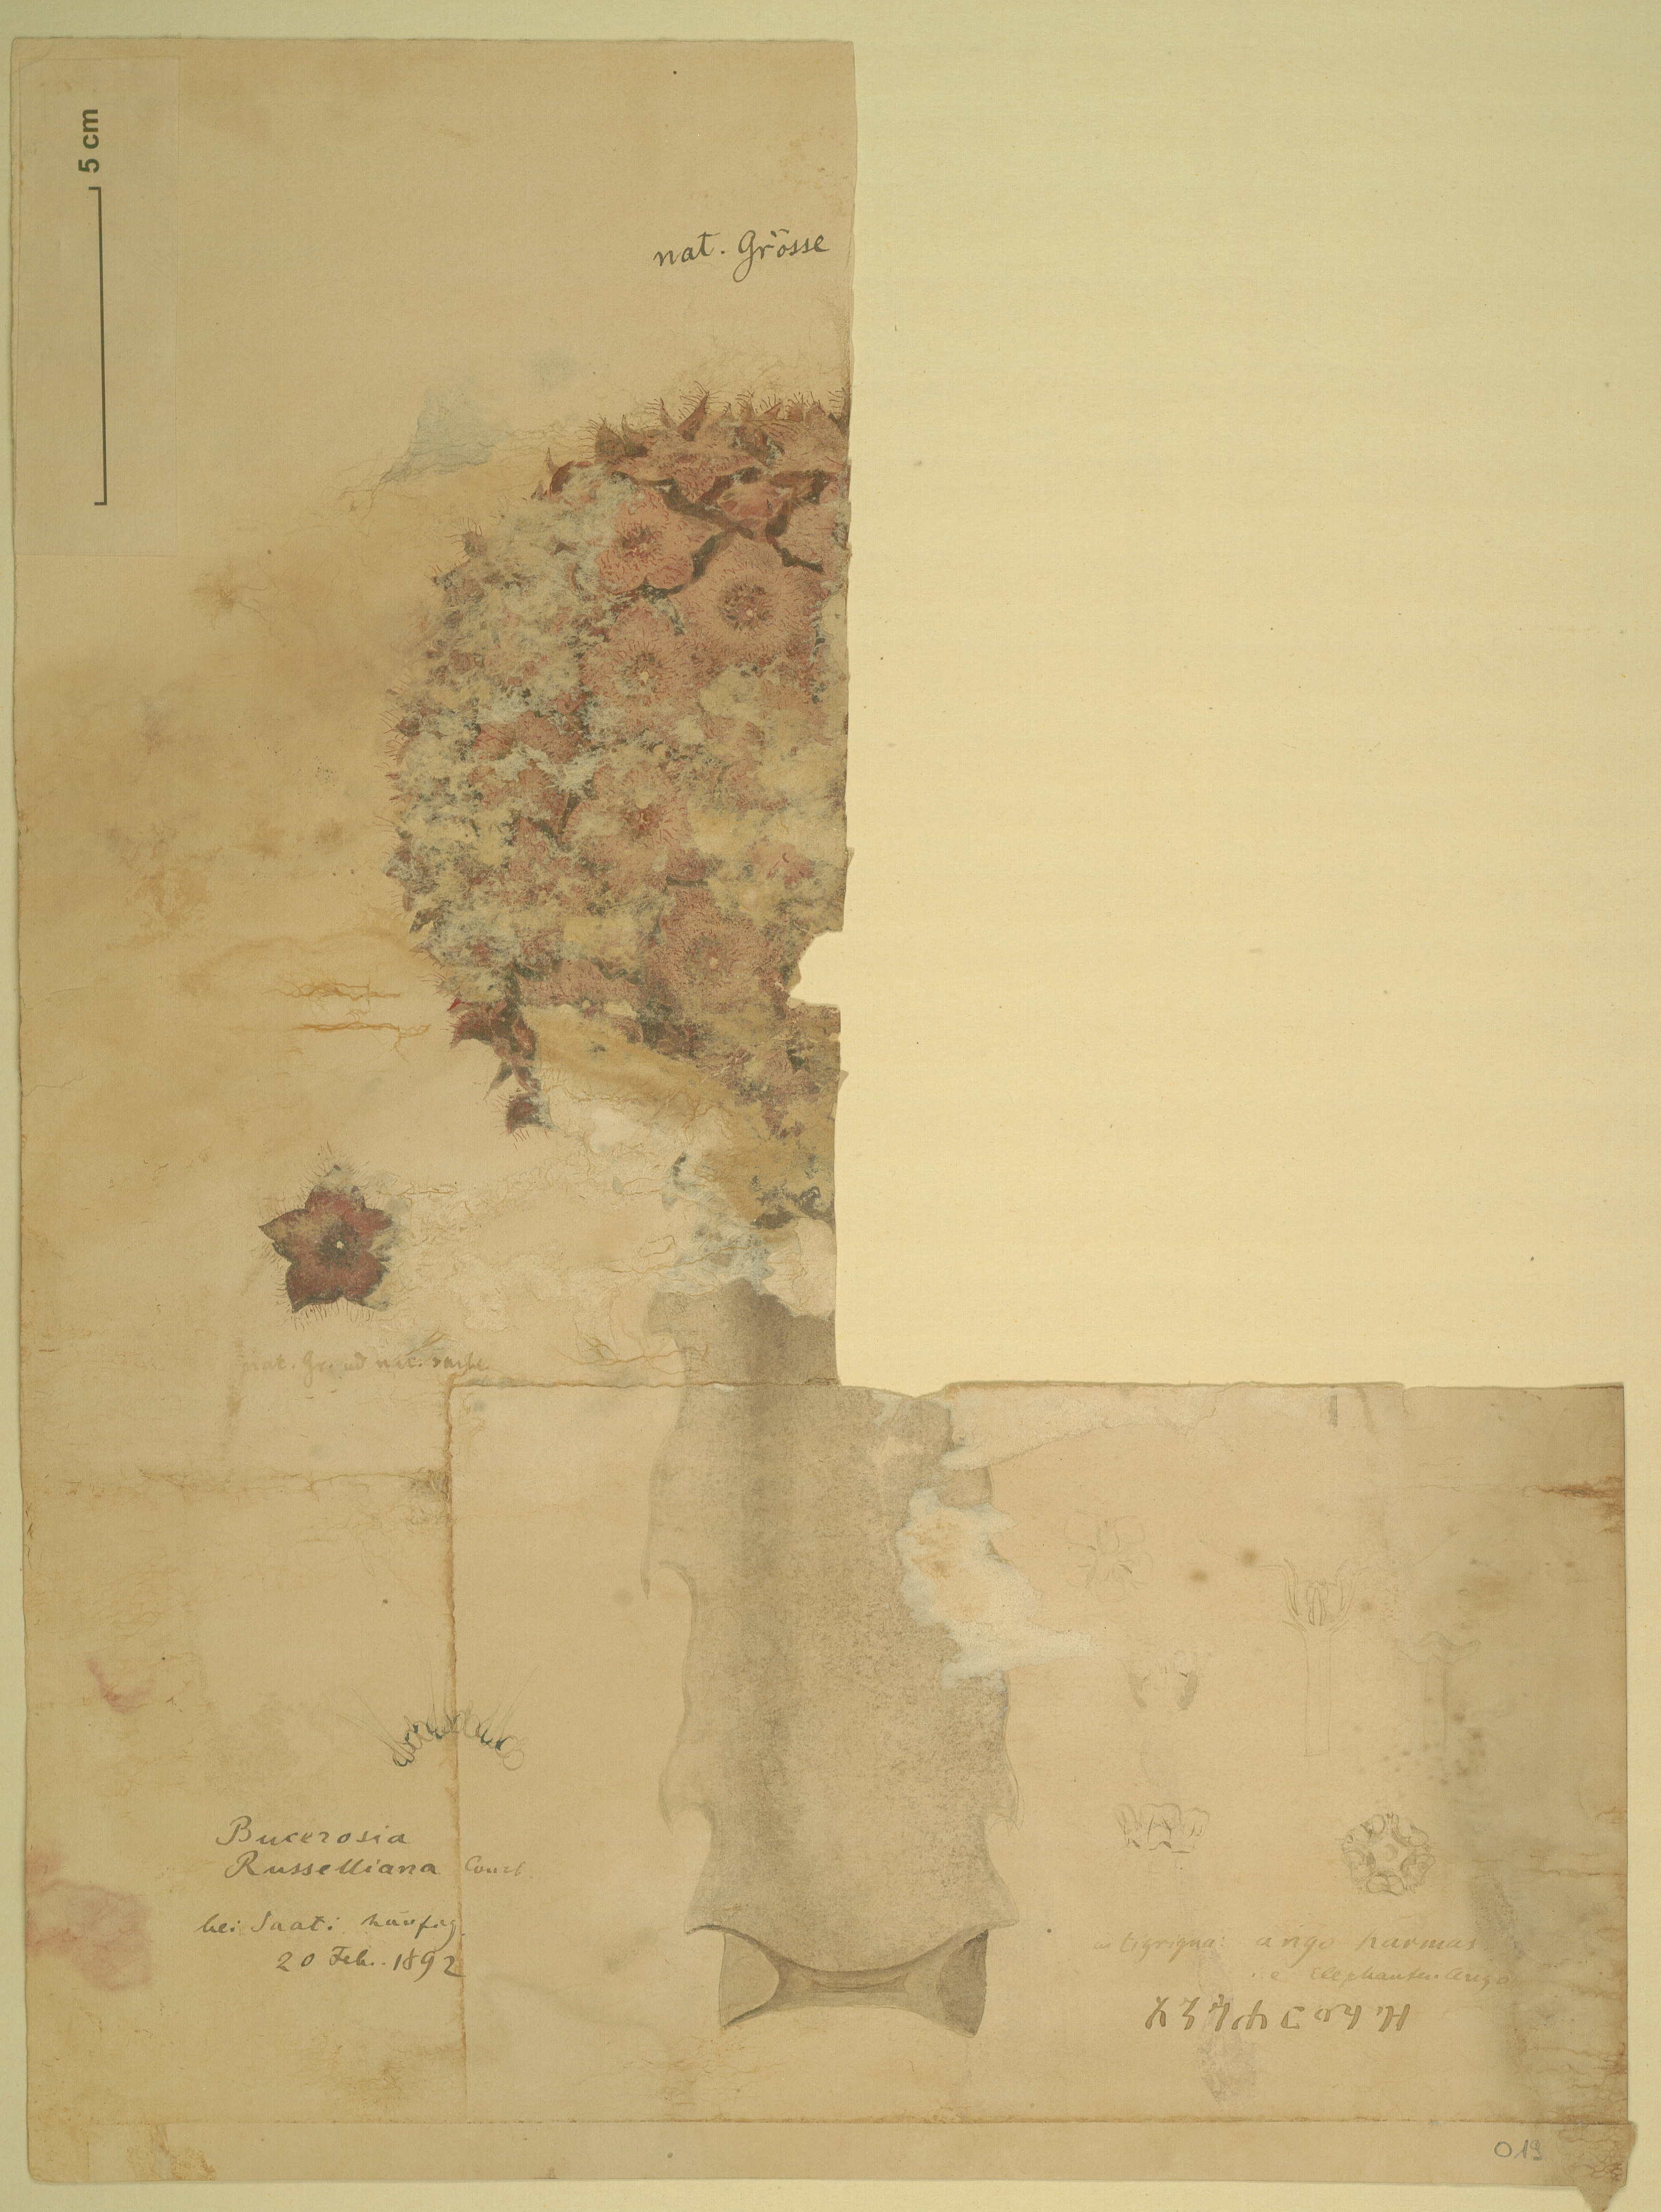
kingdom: Plantae
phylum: Tracheophyta
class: Magnoliopsida
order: Gentianales
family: Apocynaceae
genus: Ceropegia
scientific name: Ceropegia retrospiciens
